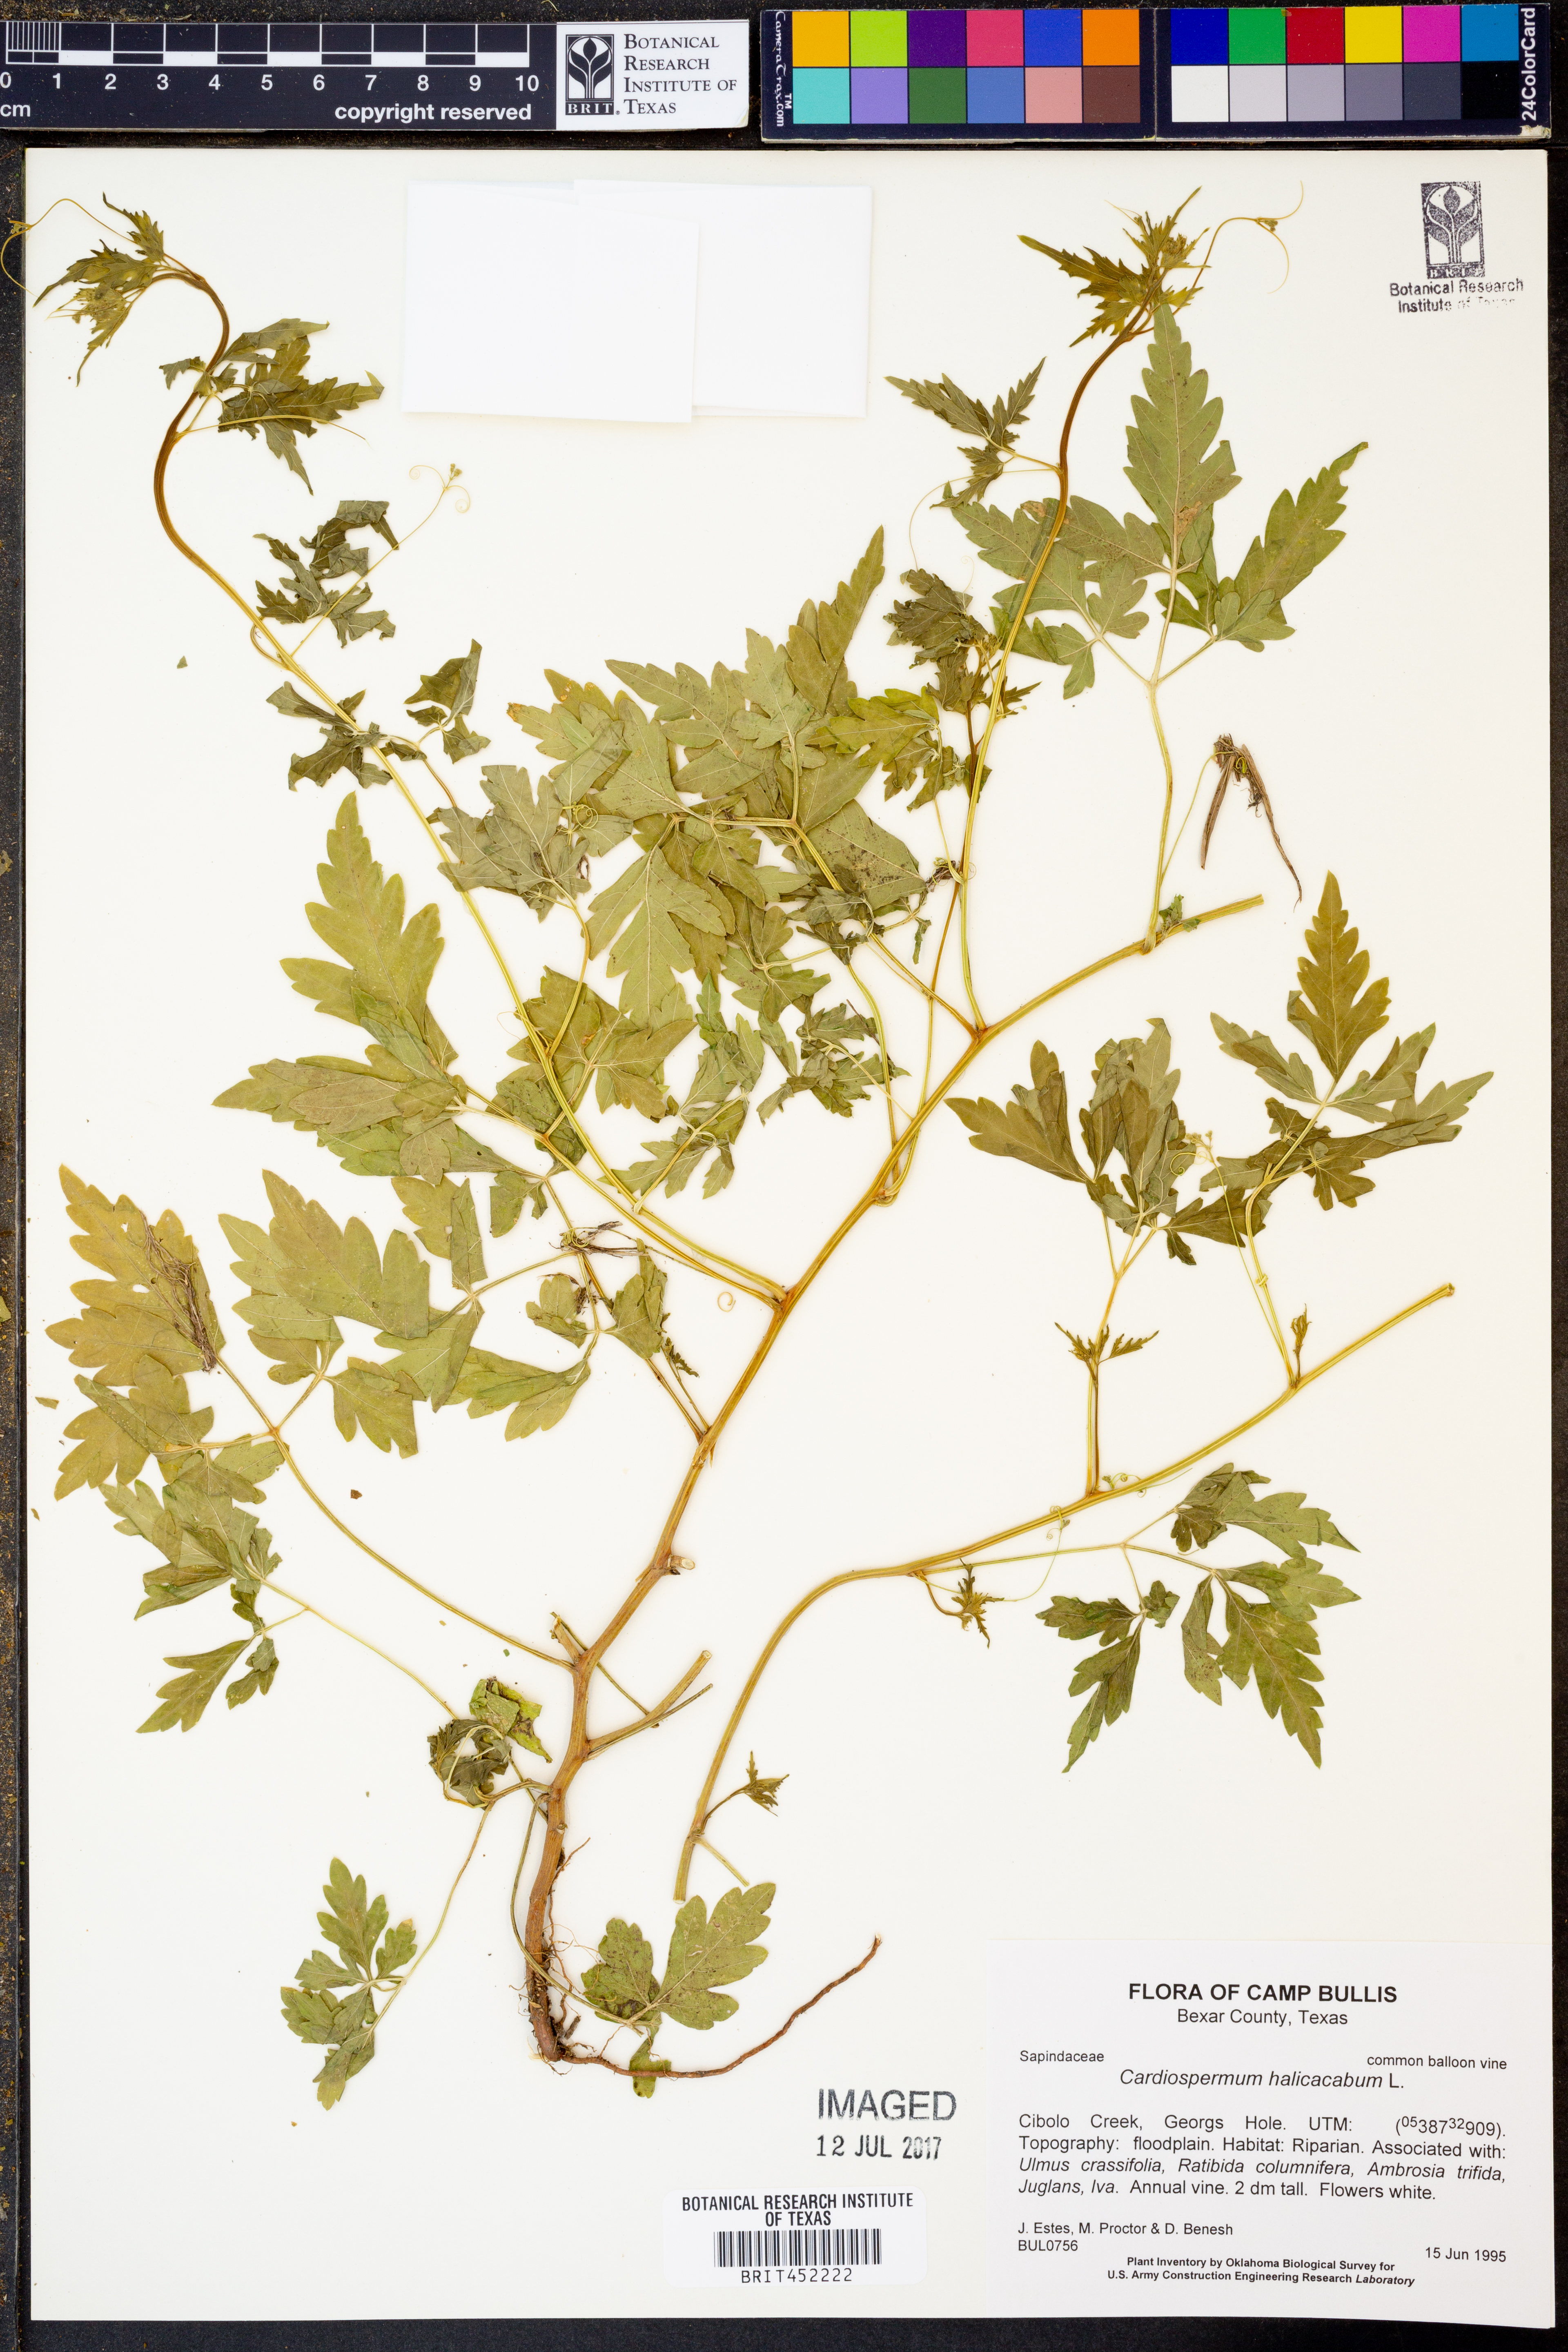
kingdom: Plantae
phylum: Tracheophyta
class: Magnoliopsida
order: Sapindales
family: Sapindaceae
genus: Cardiospermum
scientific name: Cardiospermum halicacabum
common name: Balloon vine
